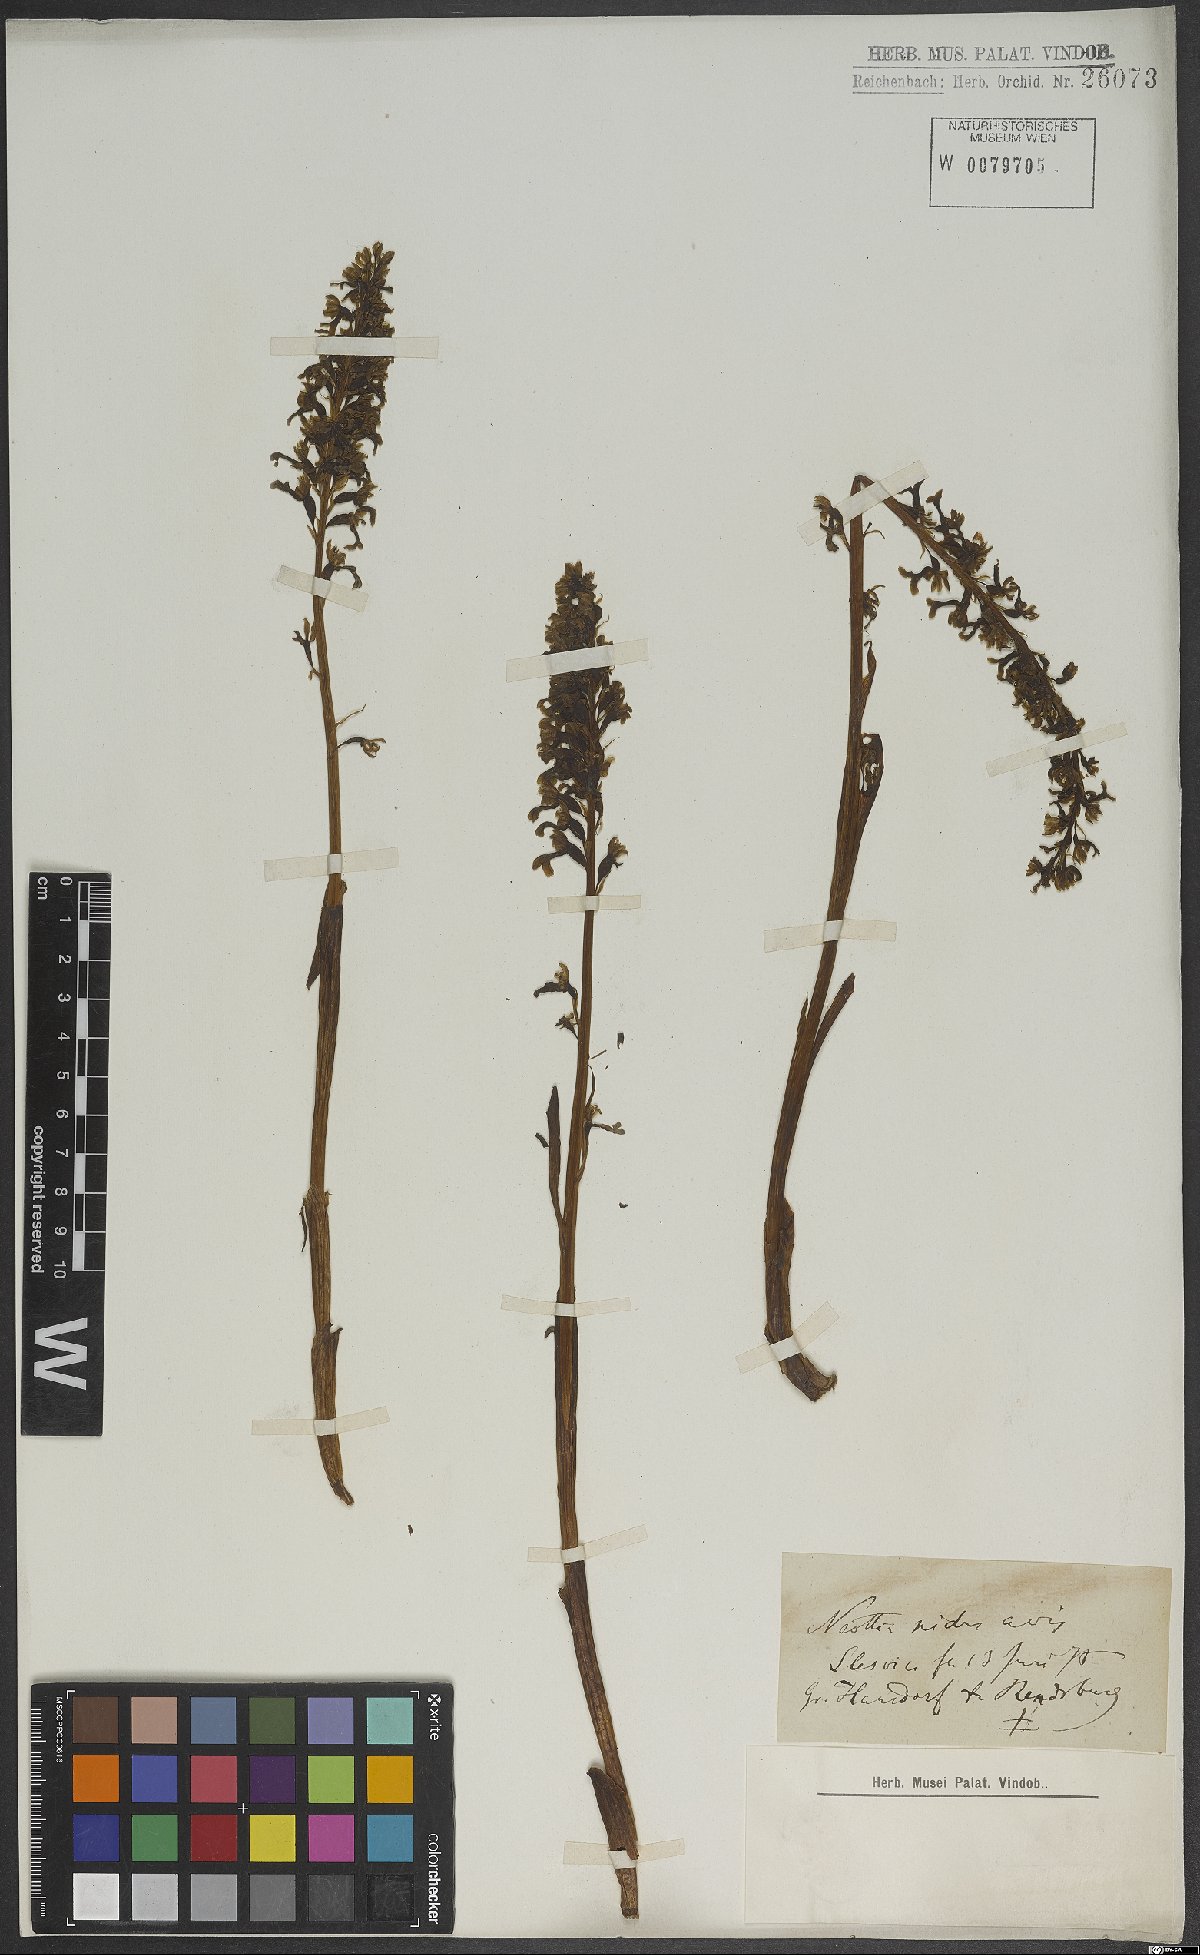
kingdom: Plantae
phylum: Tracheophyta
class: Liliopsida
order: Asparagales
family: Orchidaceae
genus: Neottia
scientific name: Neottia nidus-avis
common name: Bird's-nest orchid
